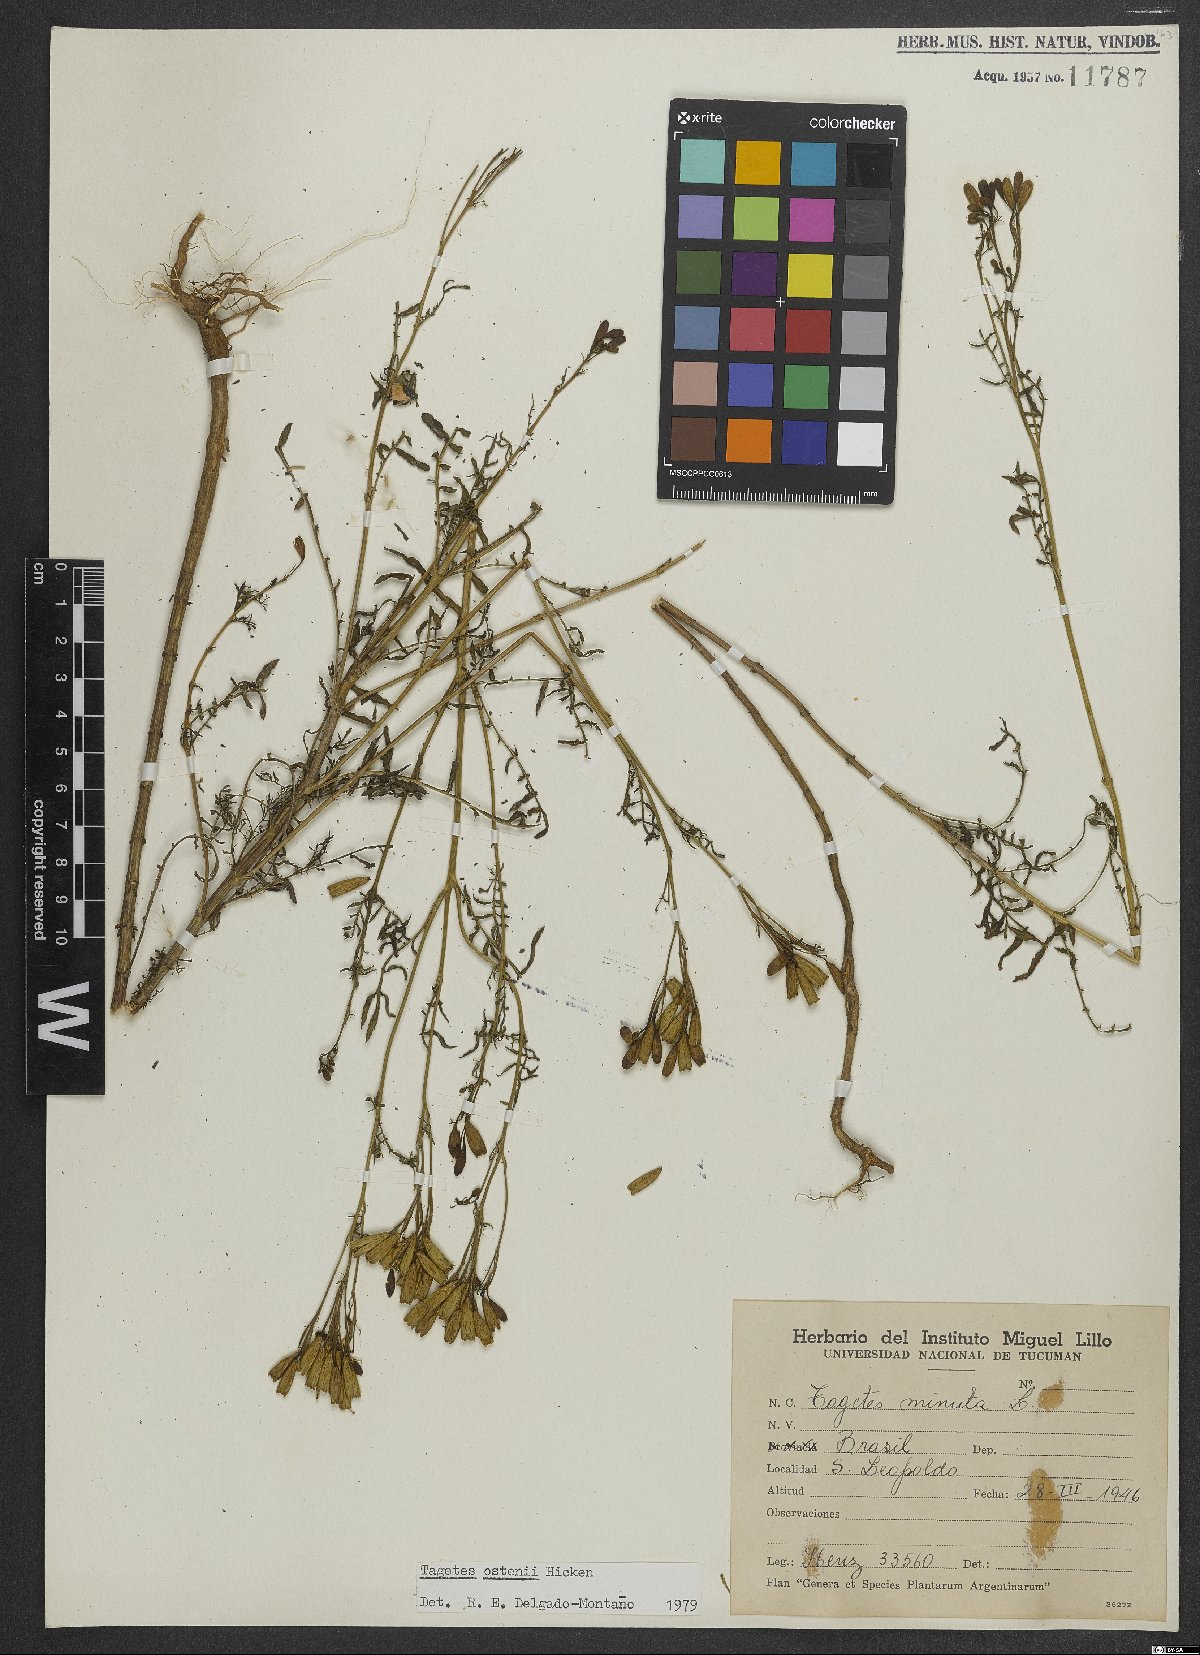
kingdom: Plantae
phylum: Tracheophyta
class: Magnoliopsida
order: Asterales
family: Asteraceae
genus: Tagetes
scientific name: Tagetes ostenii
